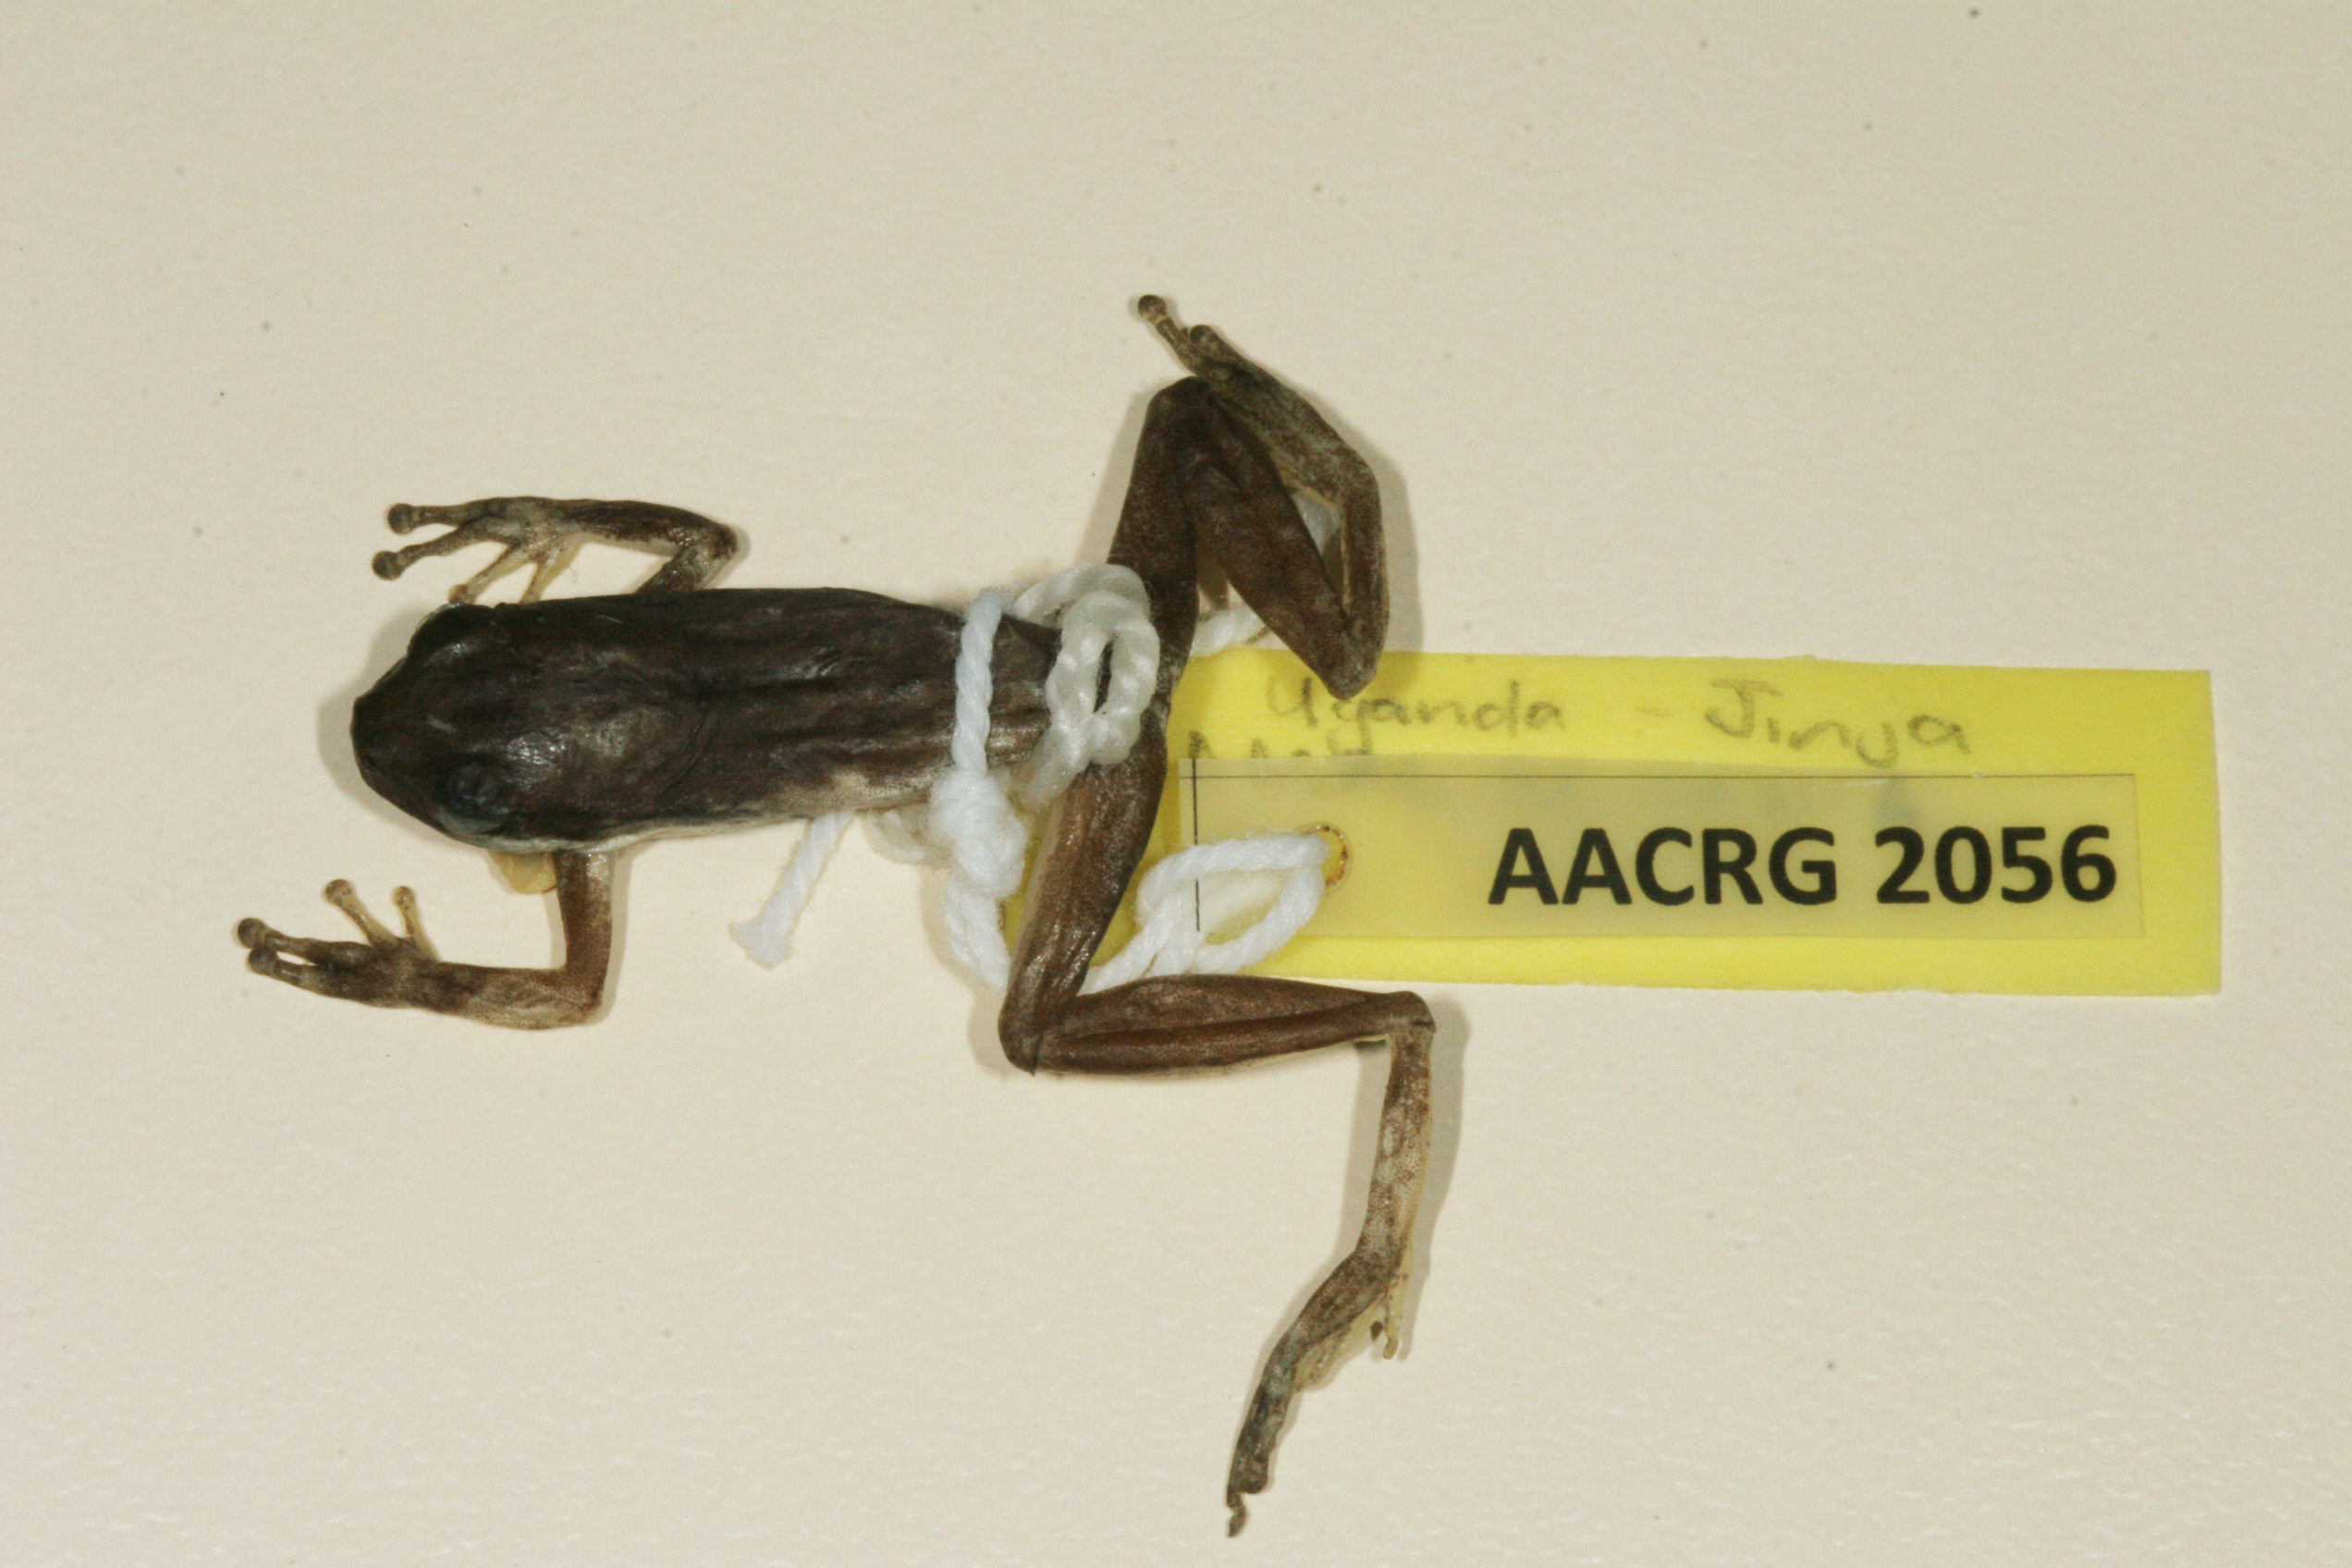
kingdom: Animalia
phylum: Chordata
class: Amphibia
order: Anura
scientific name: Anura
